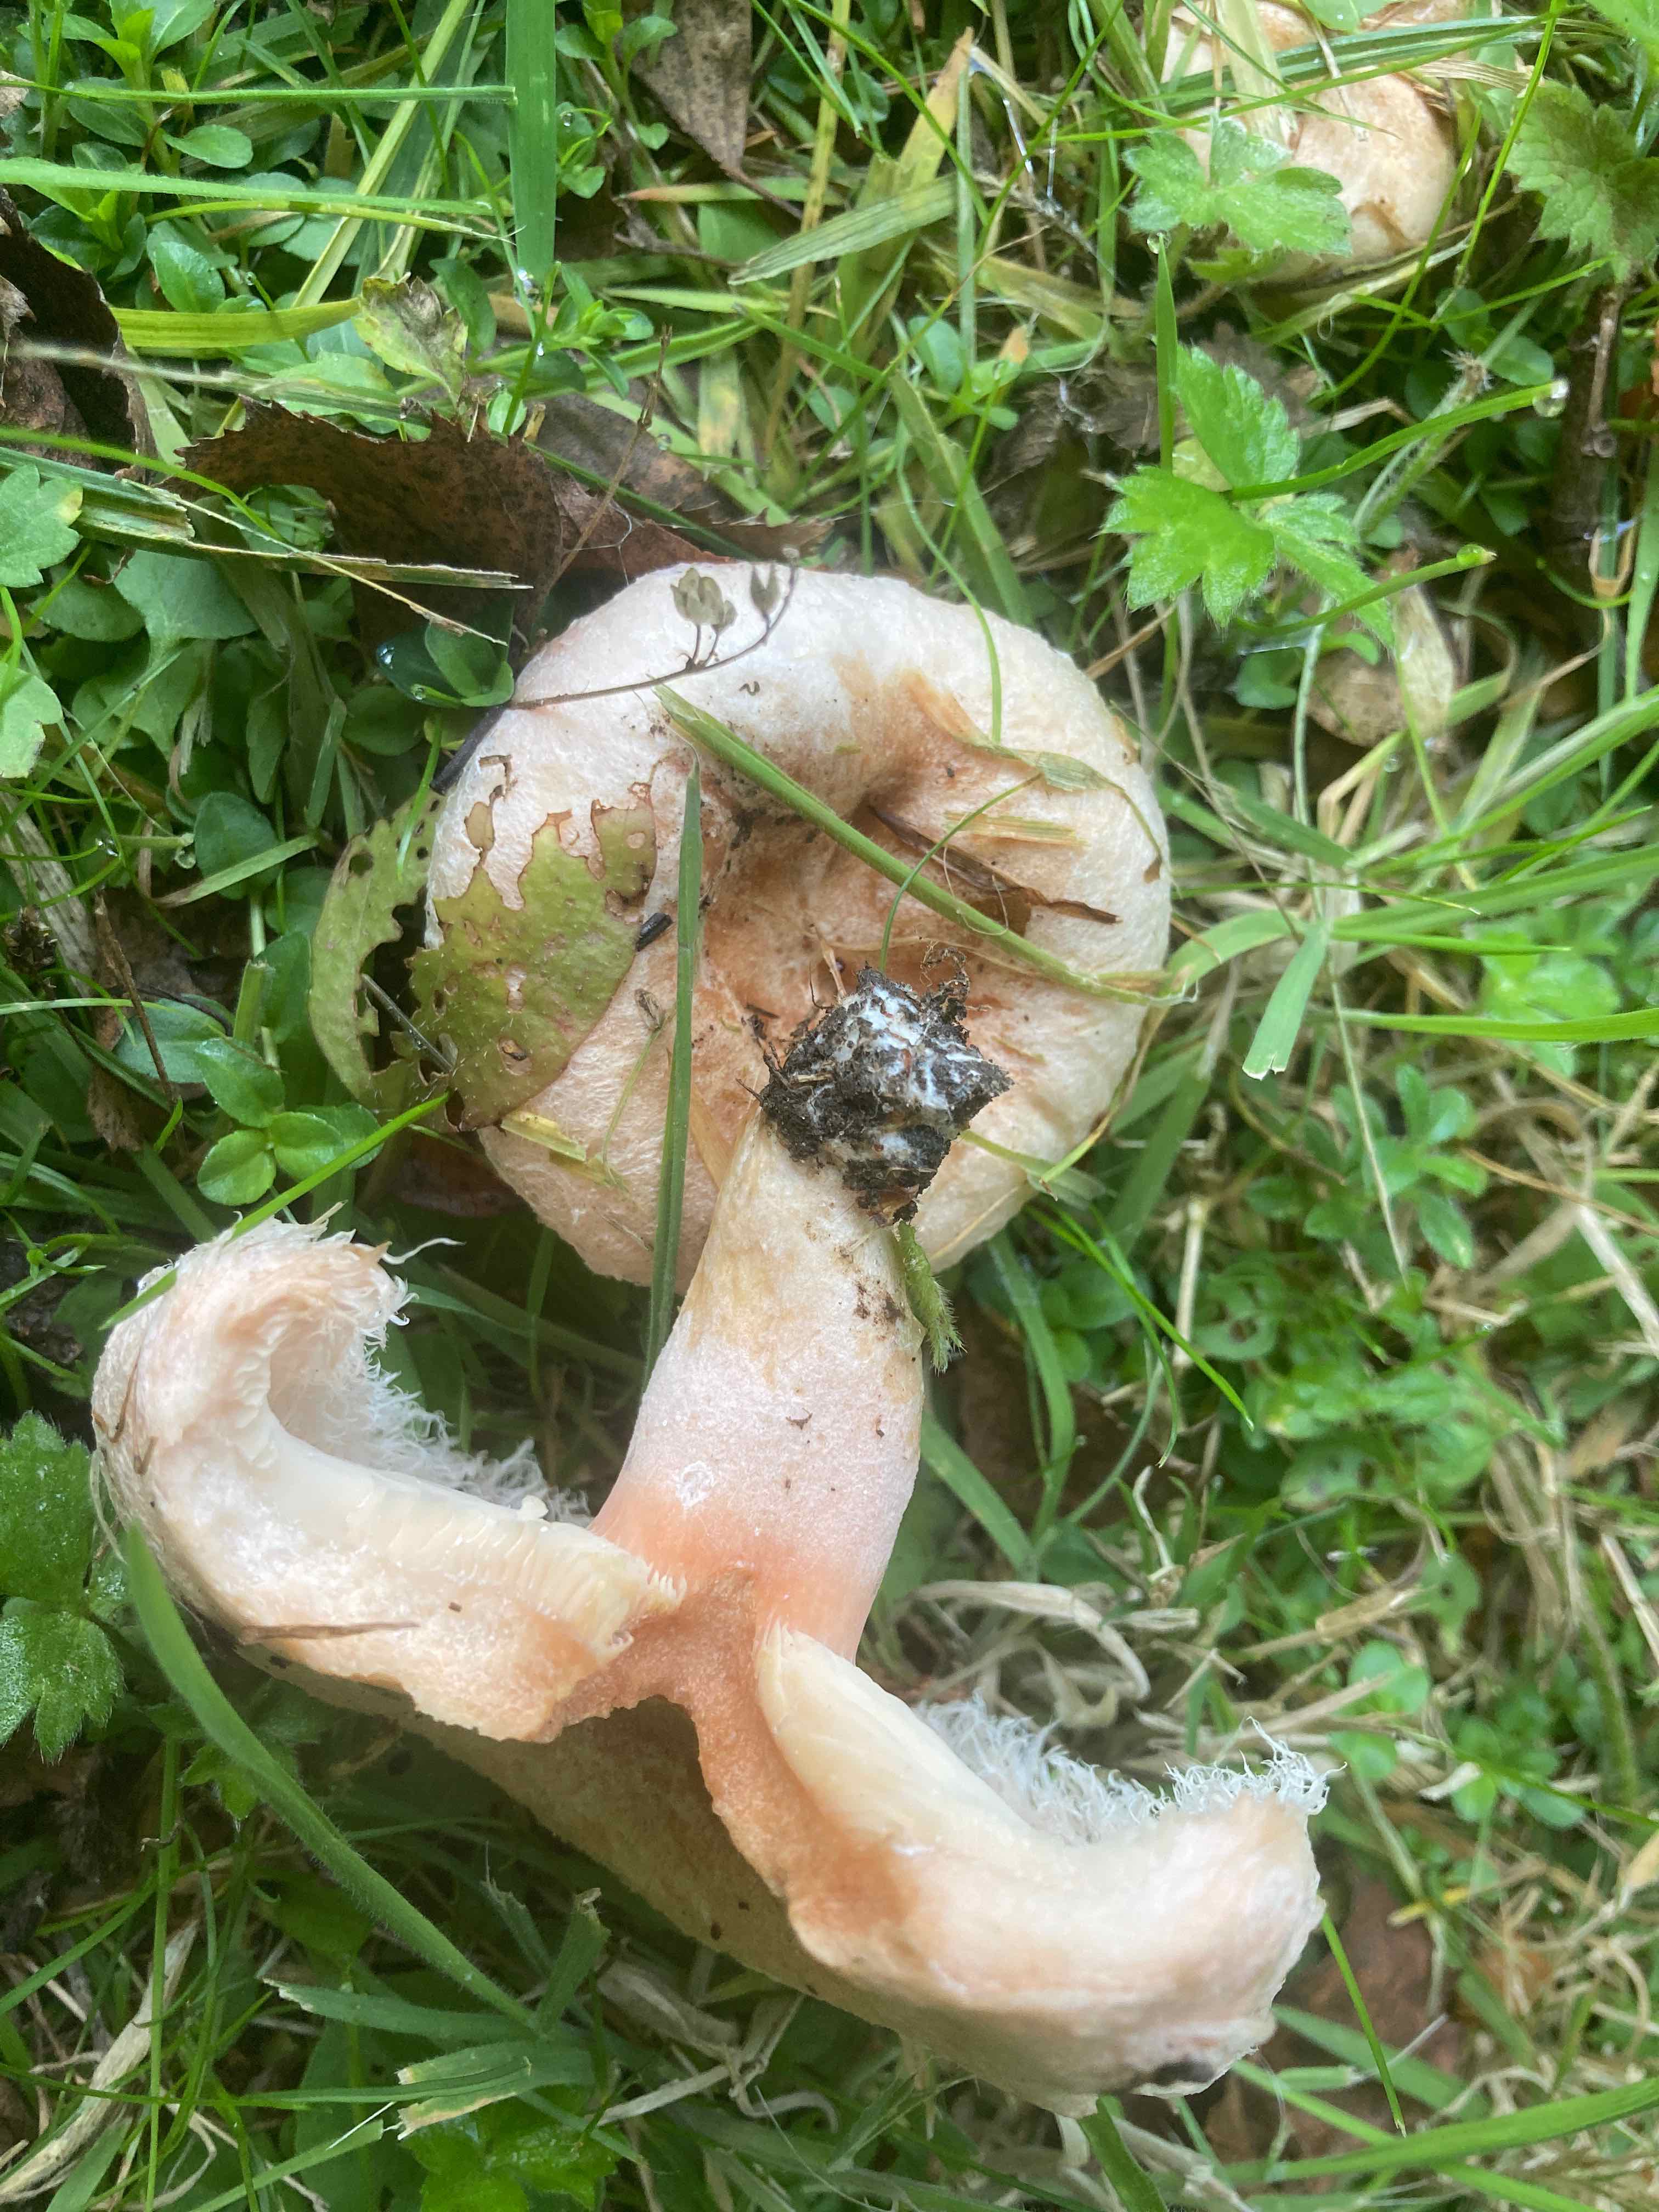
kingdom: Fungi
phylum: Basidiomycota
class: Agaricomycetes
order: Russulales
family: Russulaceae
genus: Lactarius
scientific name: Lactarius pubescens
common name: dunet mælkehat
